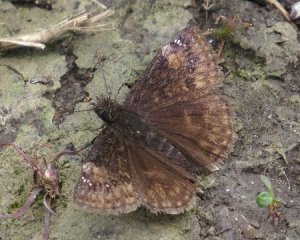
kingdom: Animalia
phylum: Arthropoda
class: Insecta
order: Lepidoptera
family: Hesperiidae
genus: Gesta
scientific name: Gesta
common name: Wild Indigo Duskywing
